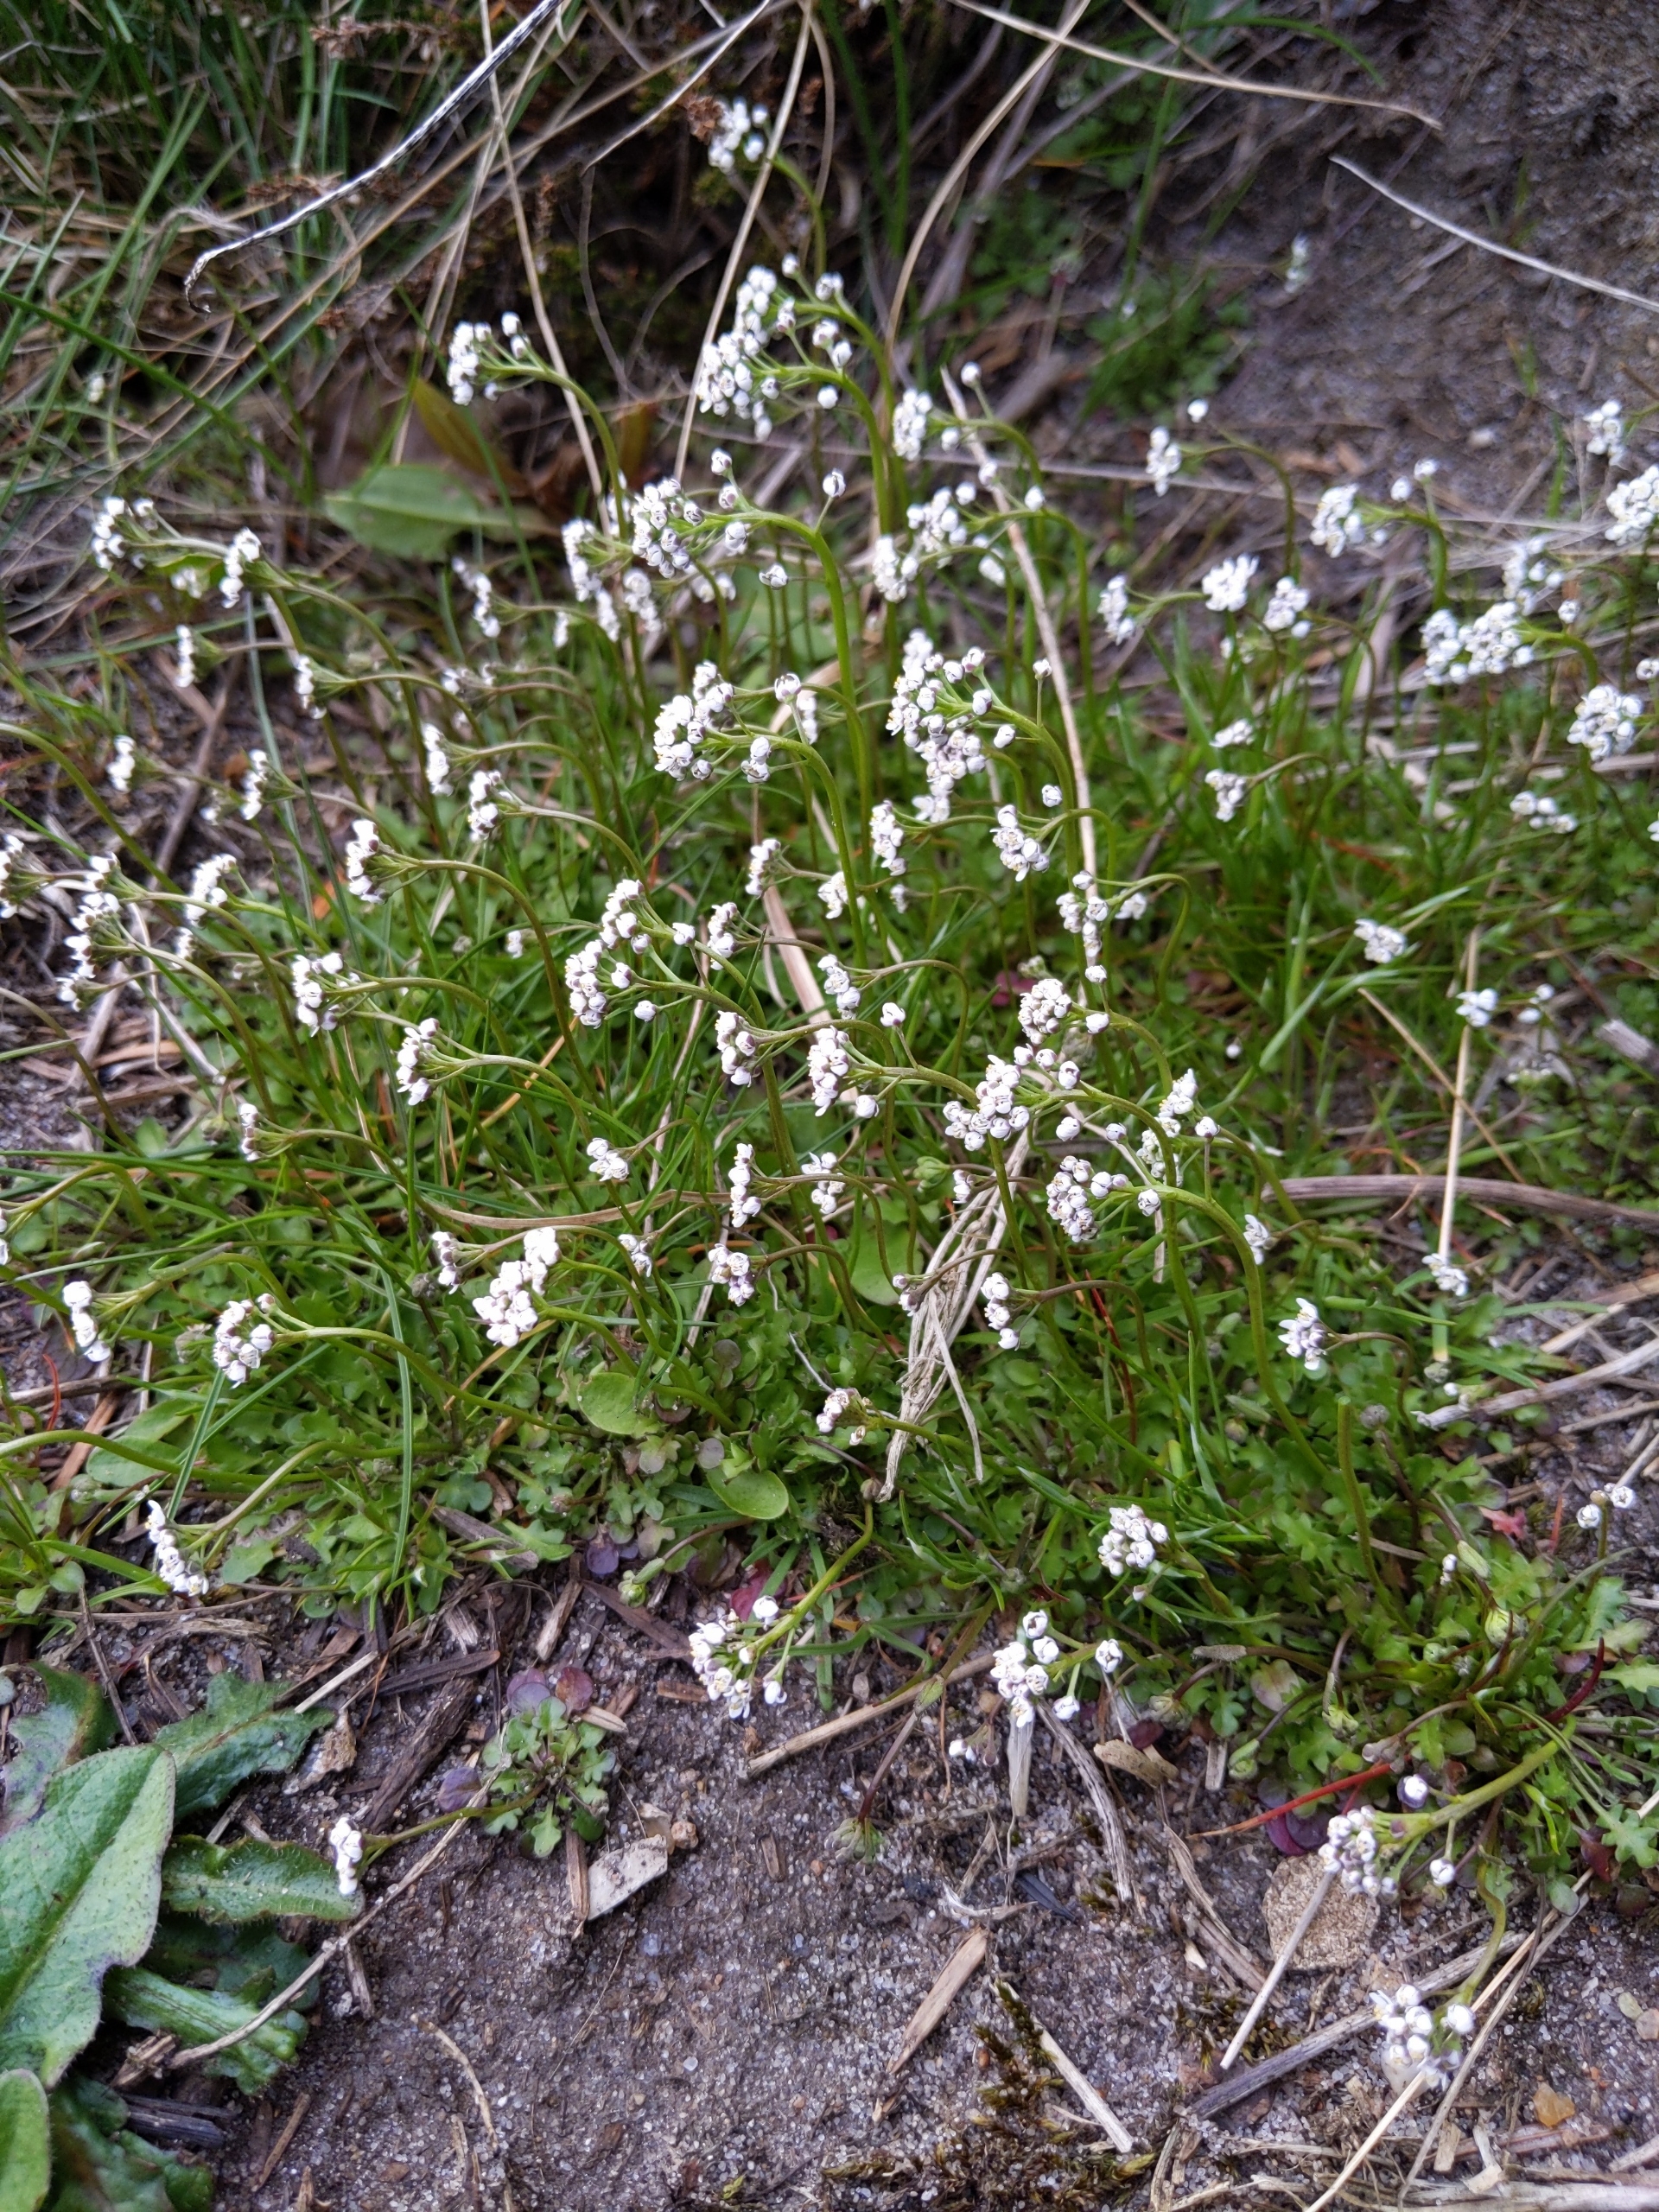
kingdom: Plantae
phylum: Tracheophyta
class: Magnoliopsida
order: Brassicales
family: Brassicaceae
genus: Cardamine
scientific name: Cardamine hirsuta
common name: Roset-springklap
